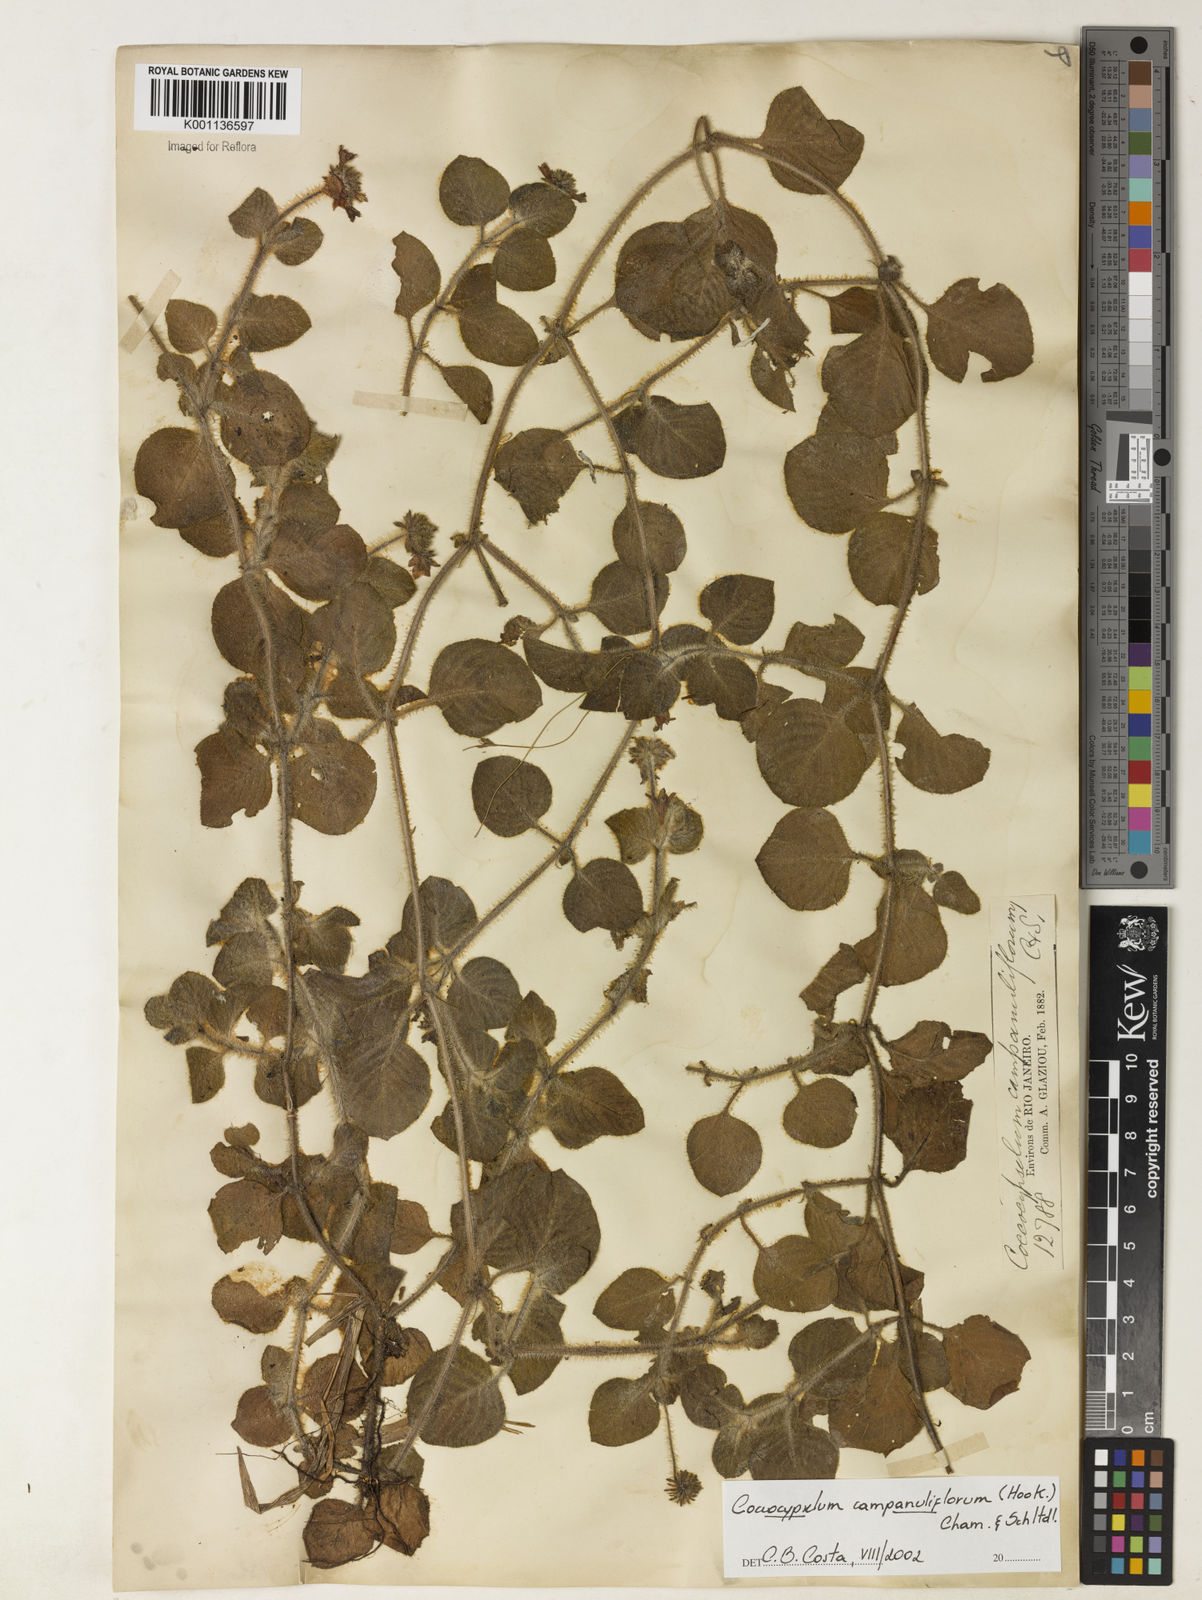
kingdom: Plantae
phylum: Tracheophyta
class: Magnoliopsida
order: Gentianales
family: Rubiaceae
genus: Coccocypselum
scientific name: Coccocypselum capitatum
